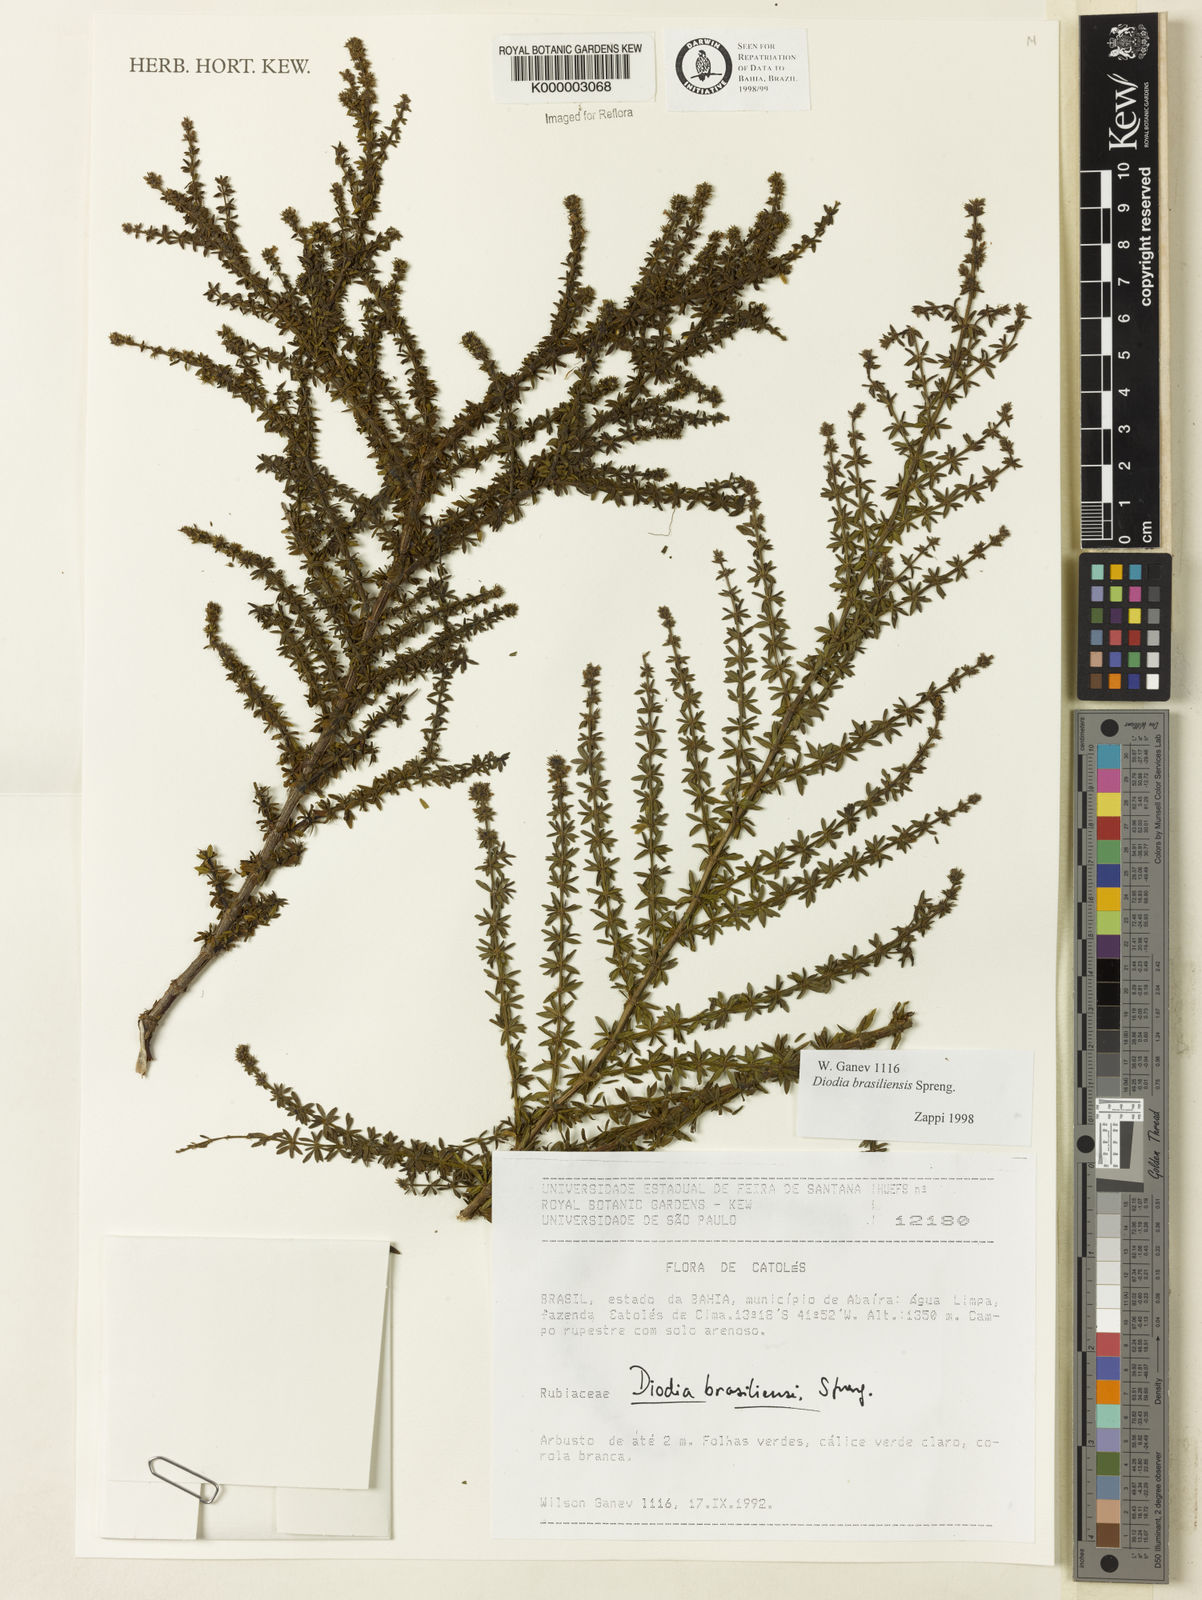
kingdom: Plantae
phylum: Tracheophyta
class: Magnoliopsida
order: Gentianales
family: Rubiaceae
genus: Galianthe
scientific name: Galianthe brasiliensis
